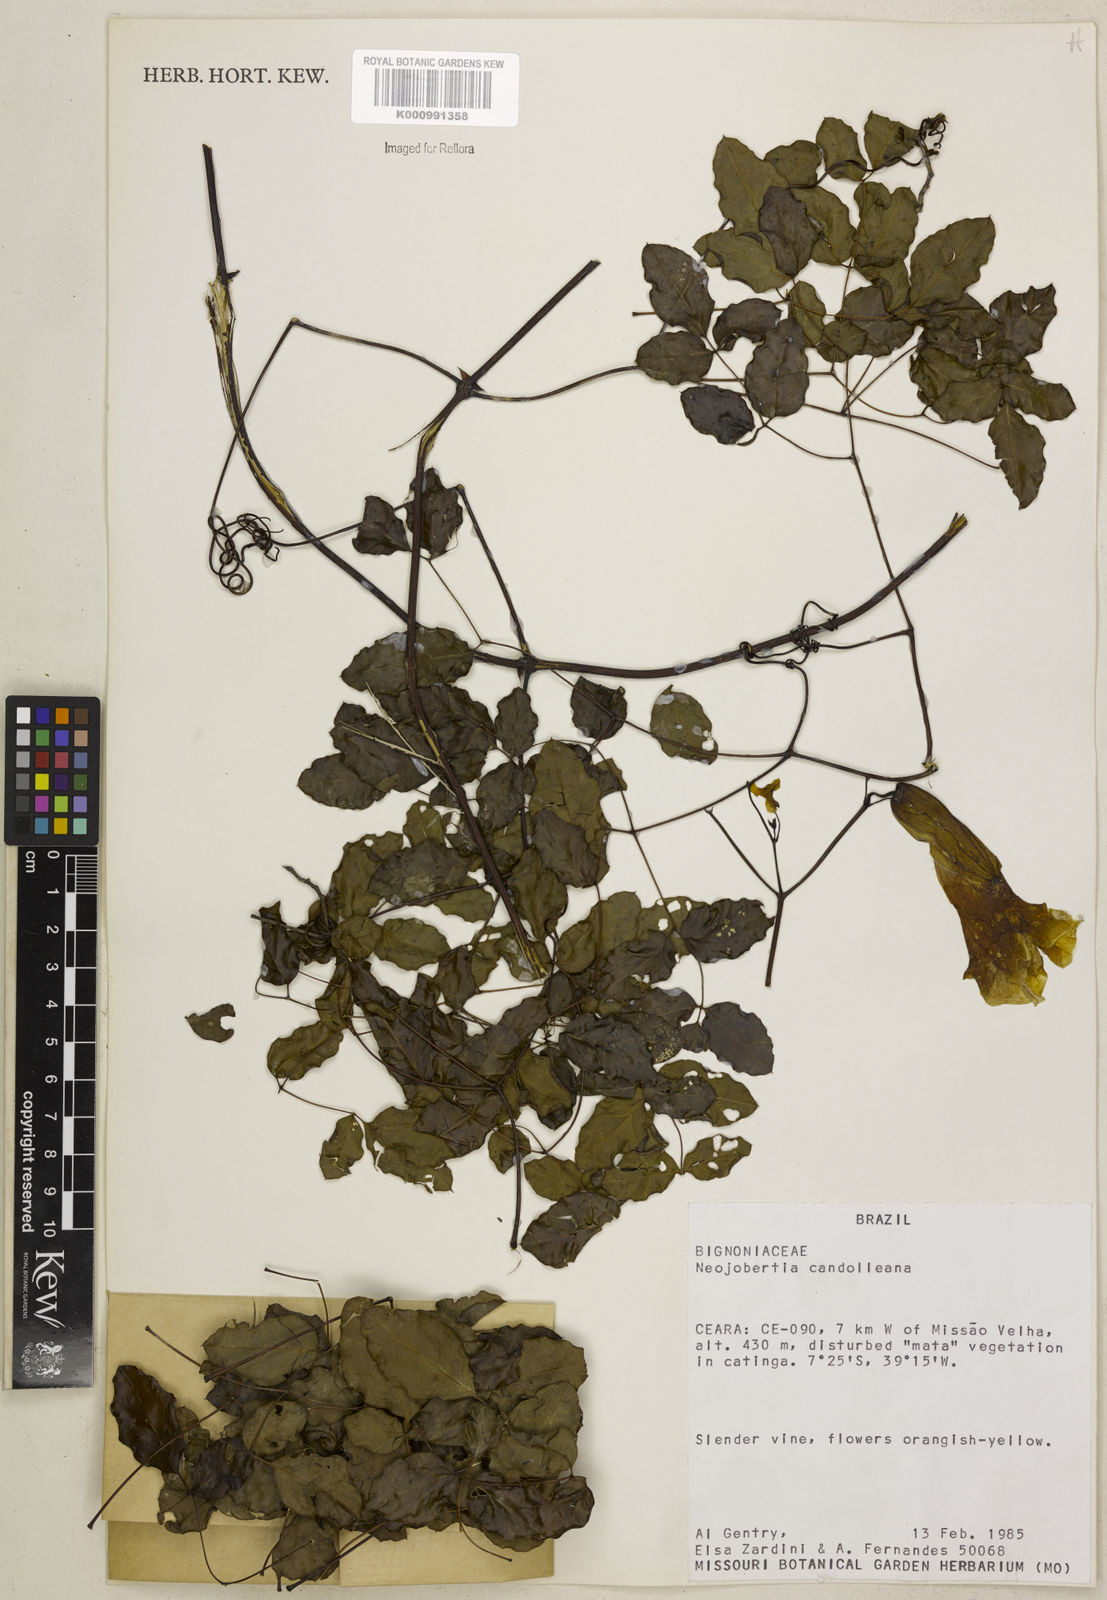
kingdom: Plantae
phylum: Tracheophyta
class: Magnoliopsida
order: Lamiales
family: Bignoniaceae
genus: Adenocalymma
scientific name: Adenocalymma candolleanum
